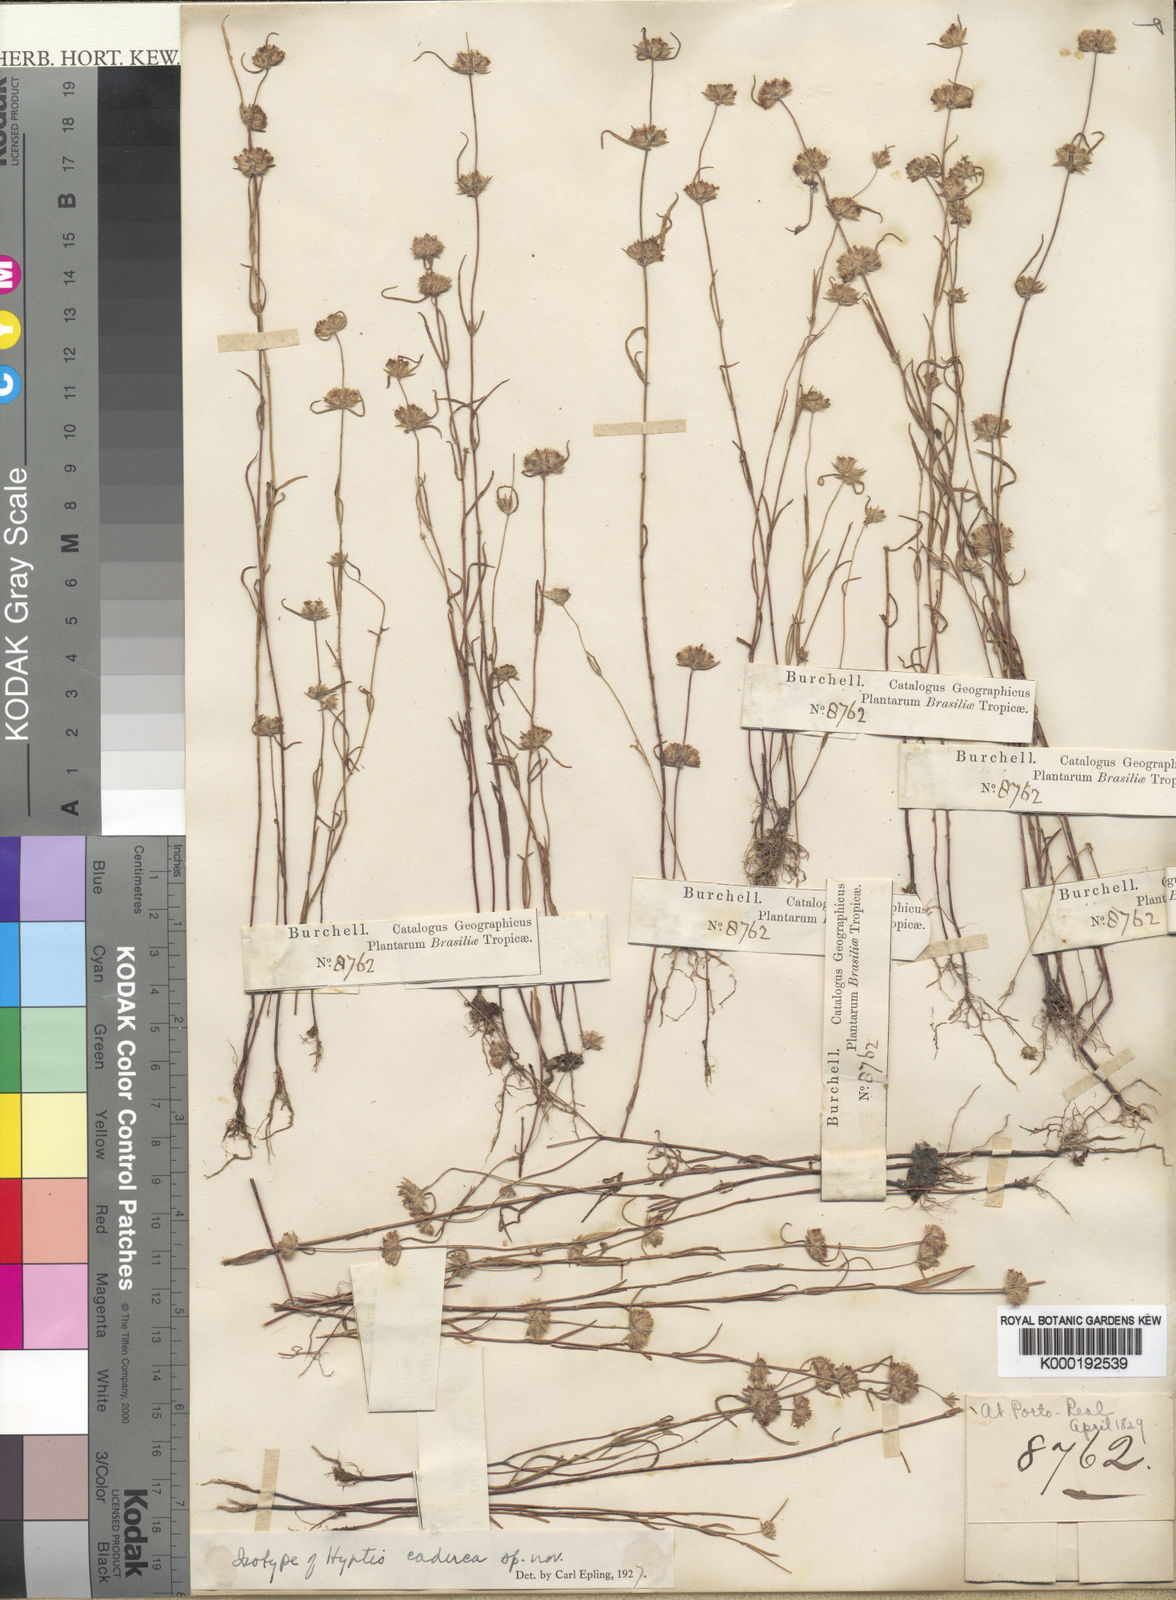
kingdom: Plantae
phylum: Tracheophyta
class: Magnoliopsida
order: Lamiales
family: Lamiaceae
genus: Hyptis
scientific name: Hyptis caduca
